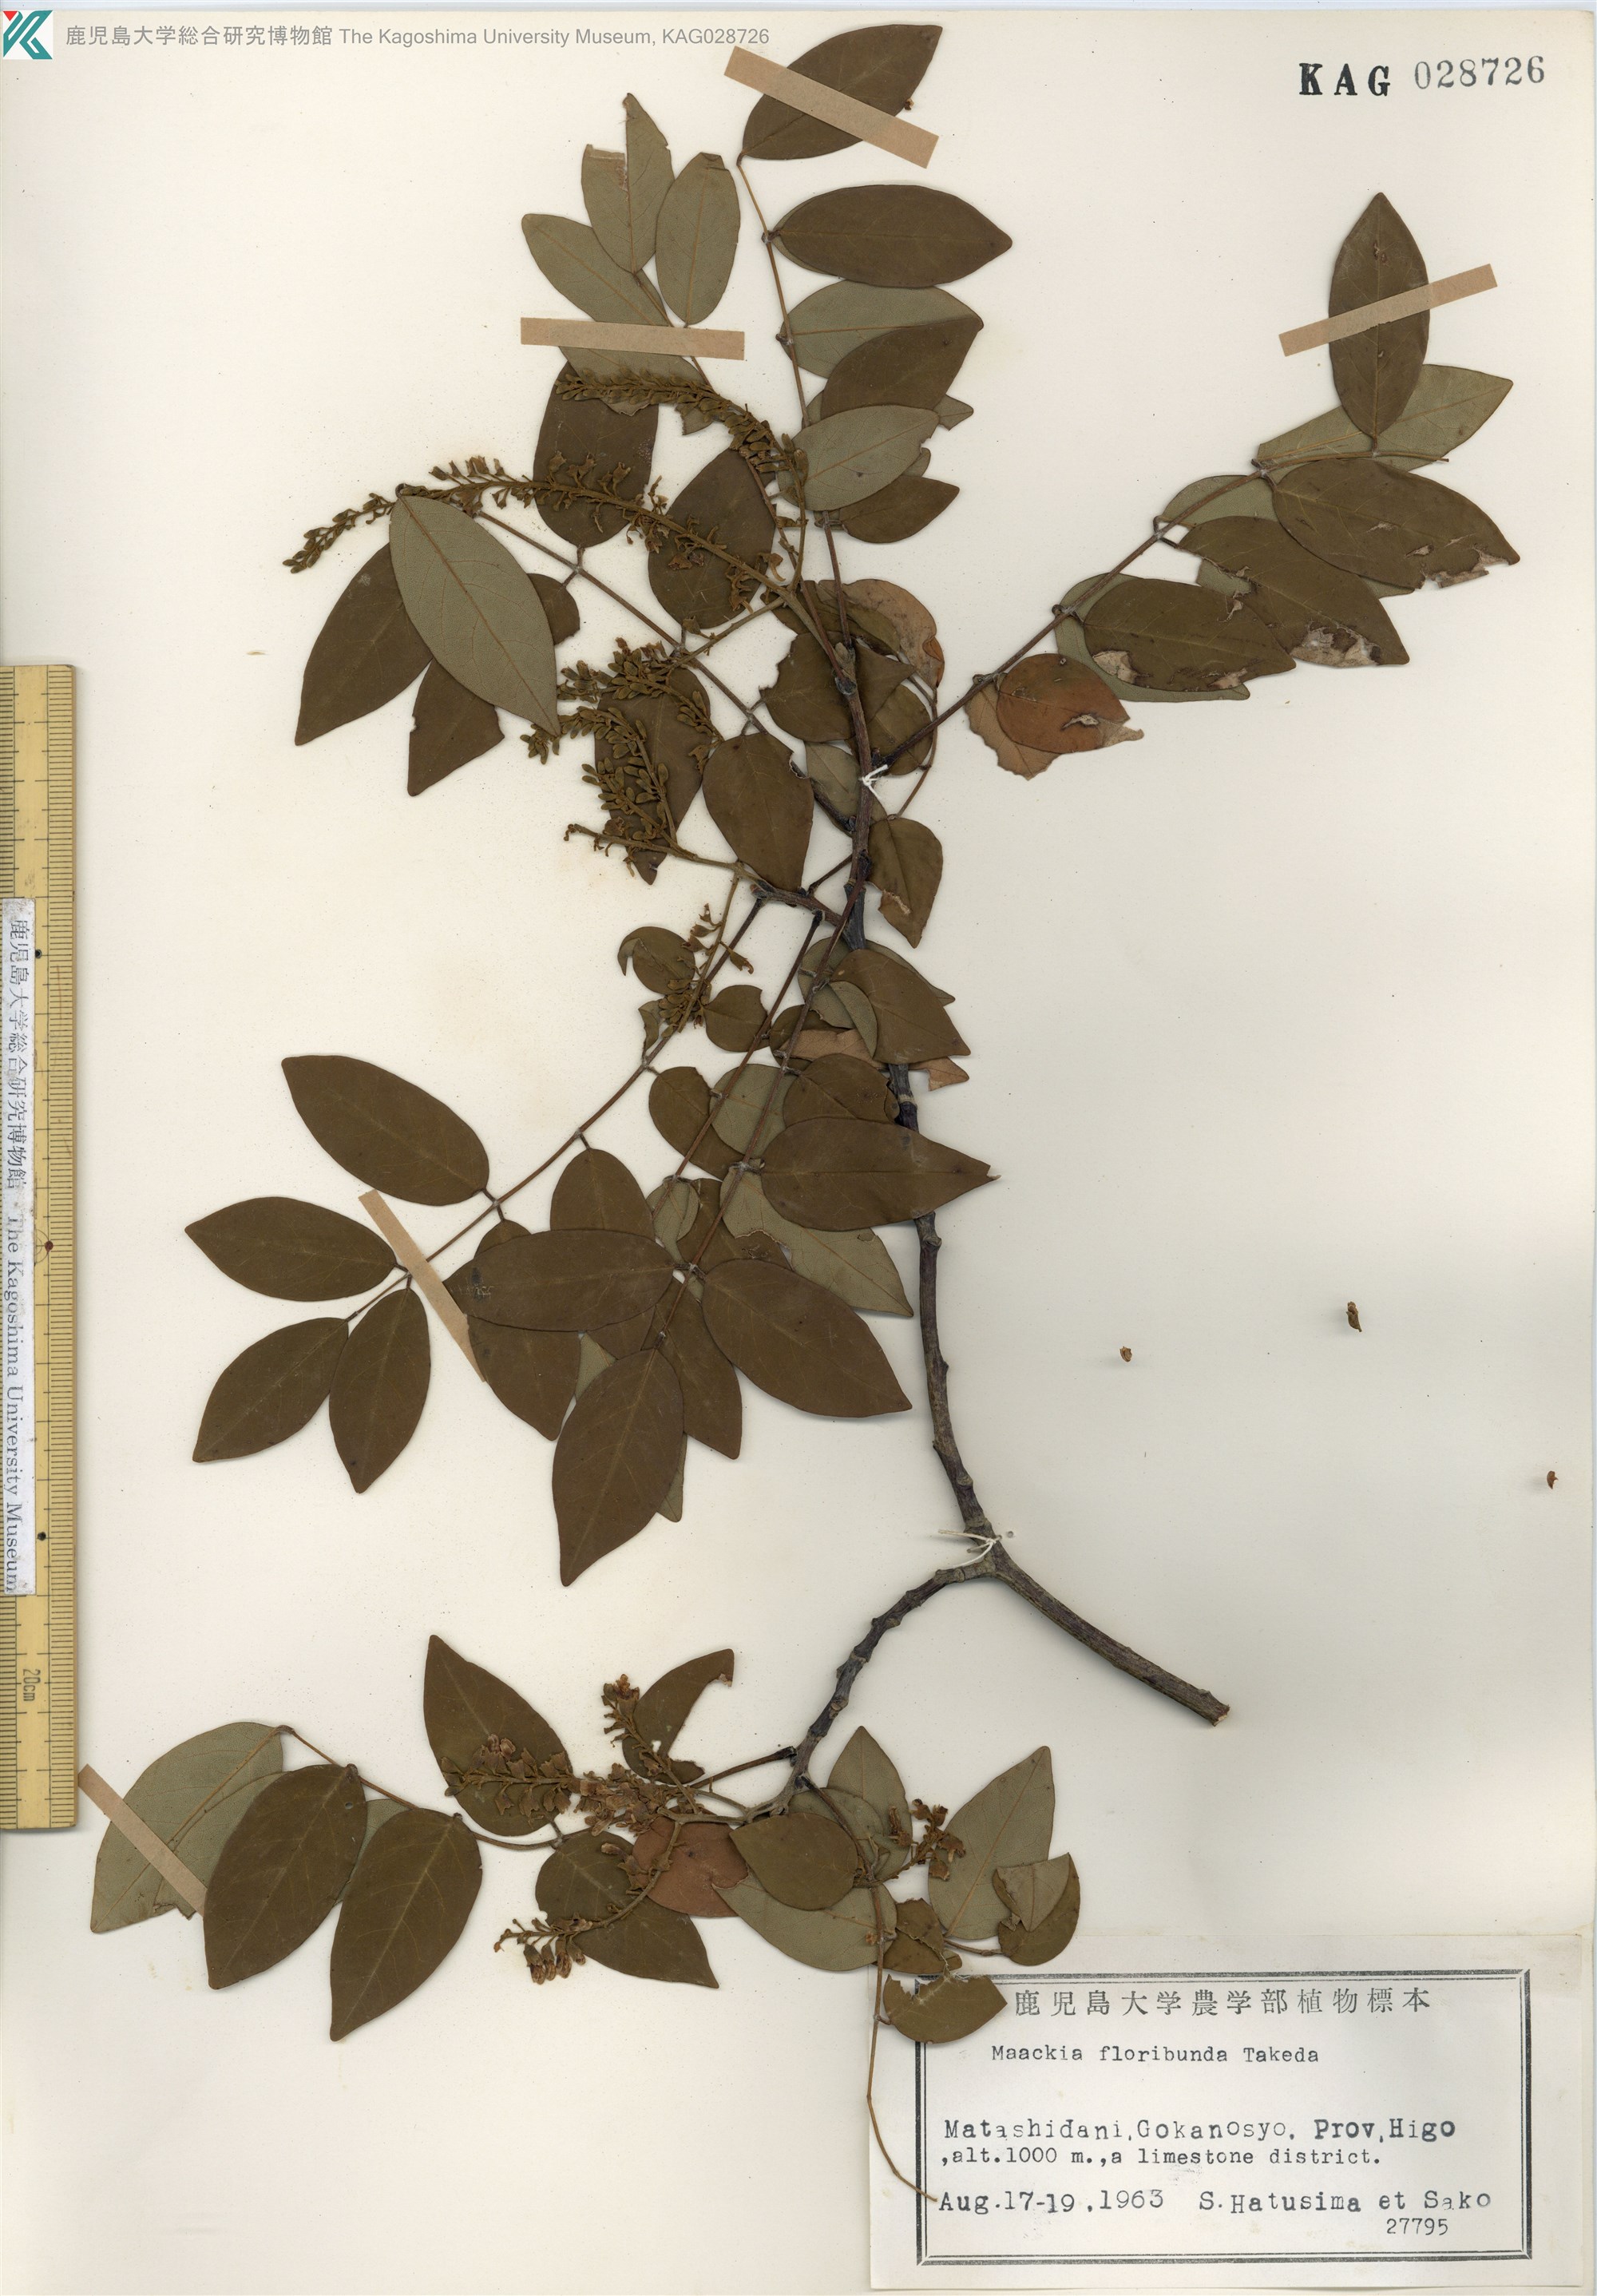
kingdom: Plantae
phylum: Tracheophyta
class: Magnoliopsida
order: Fabales
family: Fabaceae
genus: Maackia
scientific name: Maackia amurensis
